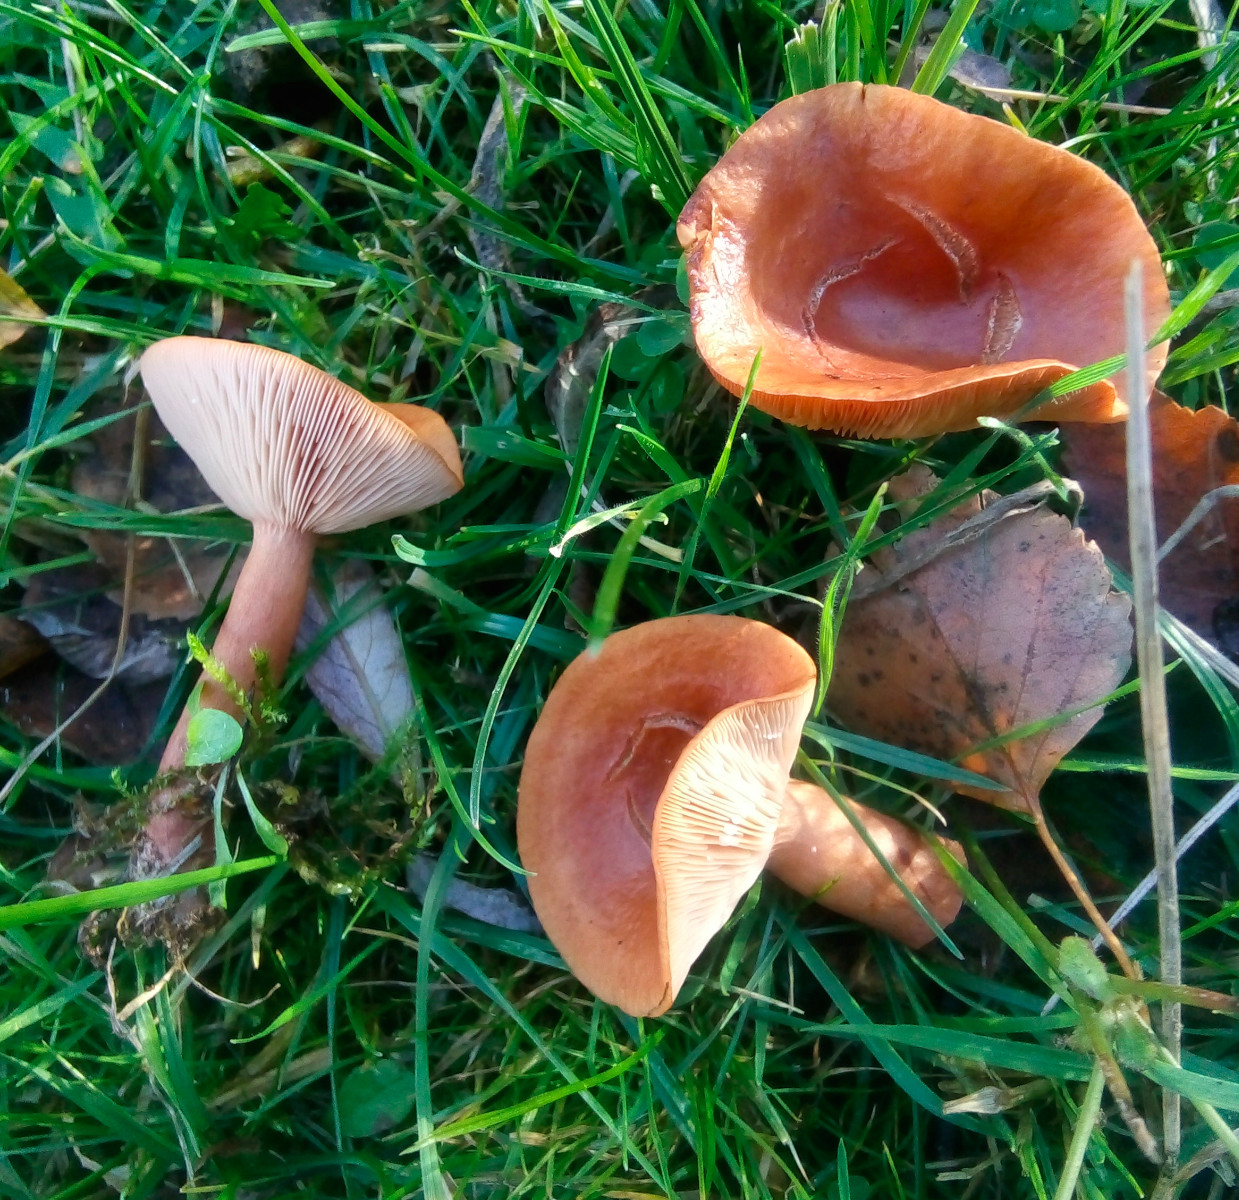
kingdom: Fungi
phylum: Basidiomycota
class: Agaricomycetes
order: Russulales
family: Russulaceae
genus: Lactarius
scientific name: Lactarius tabidus
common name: rynket mælkehat
